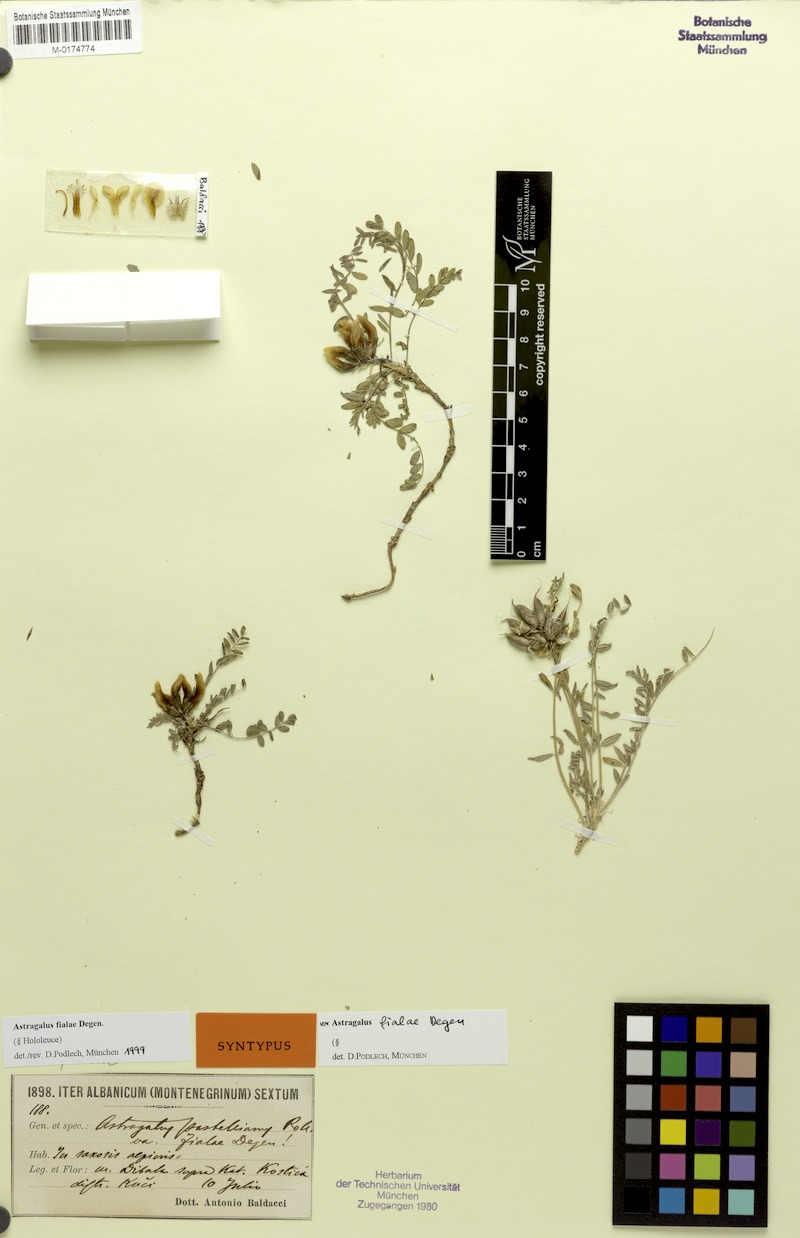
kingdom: Plantae
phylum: Tracheophyta
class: Magnoliopsida
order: Fabales
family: Fabaceae
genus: Astragalus
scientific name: Astragalus fialae
